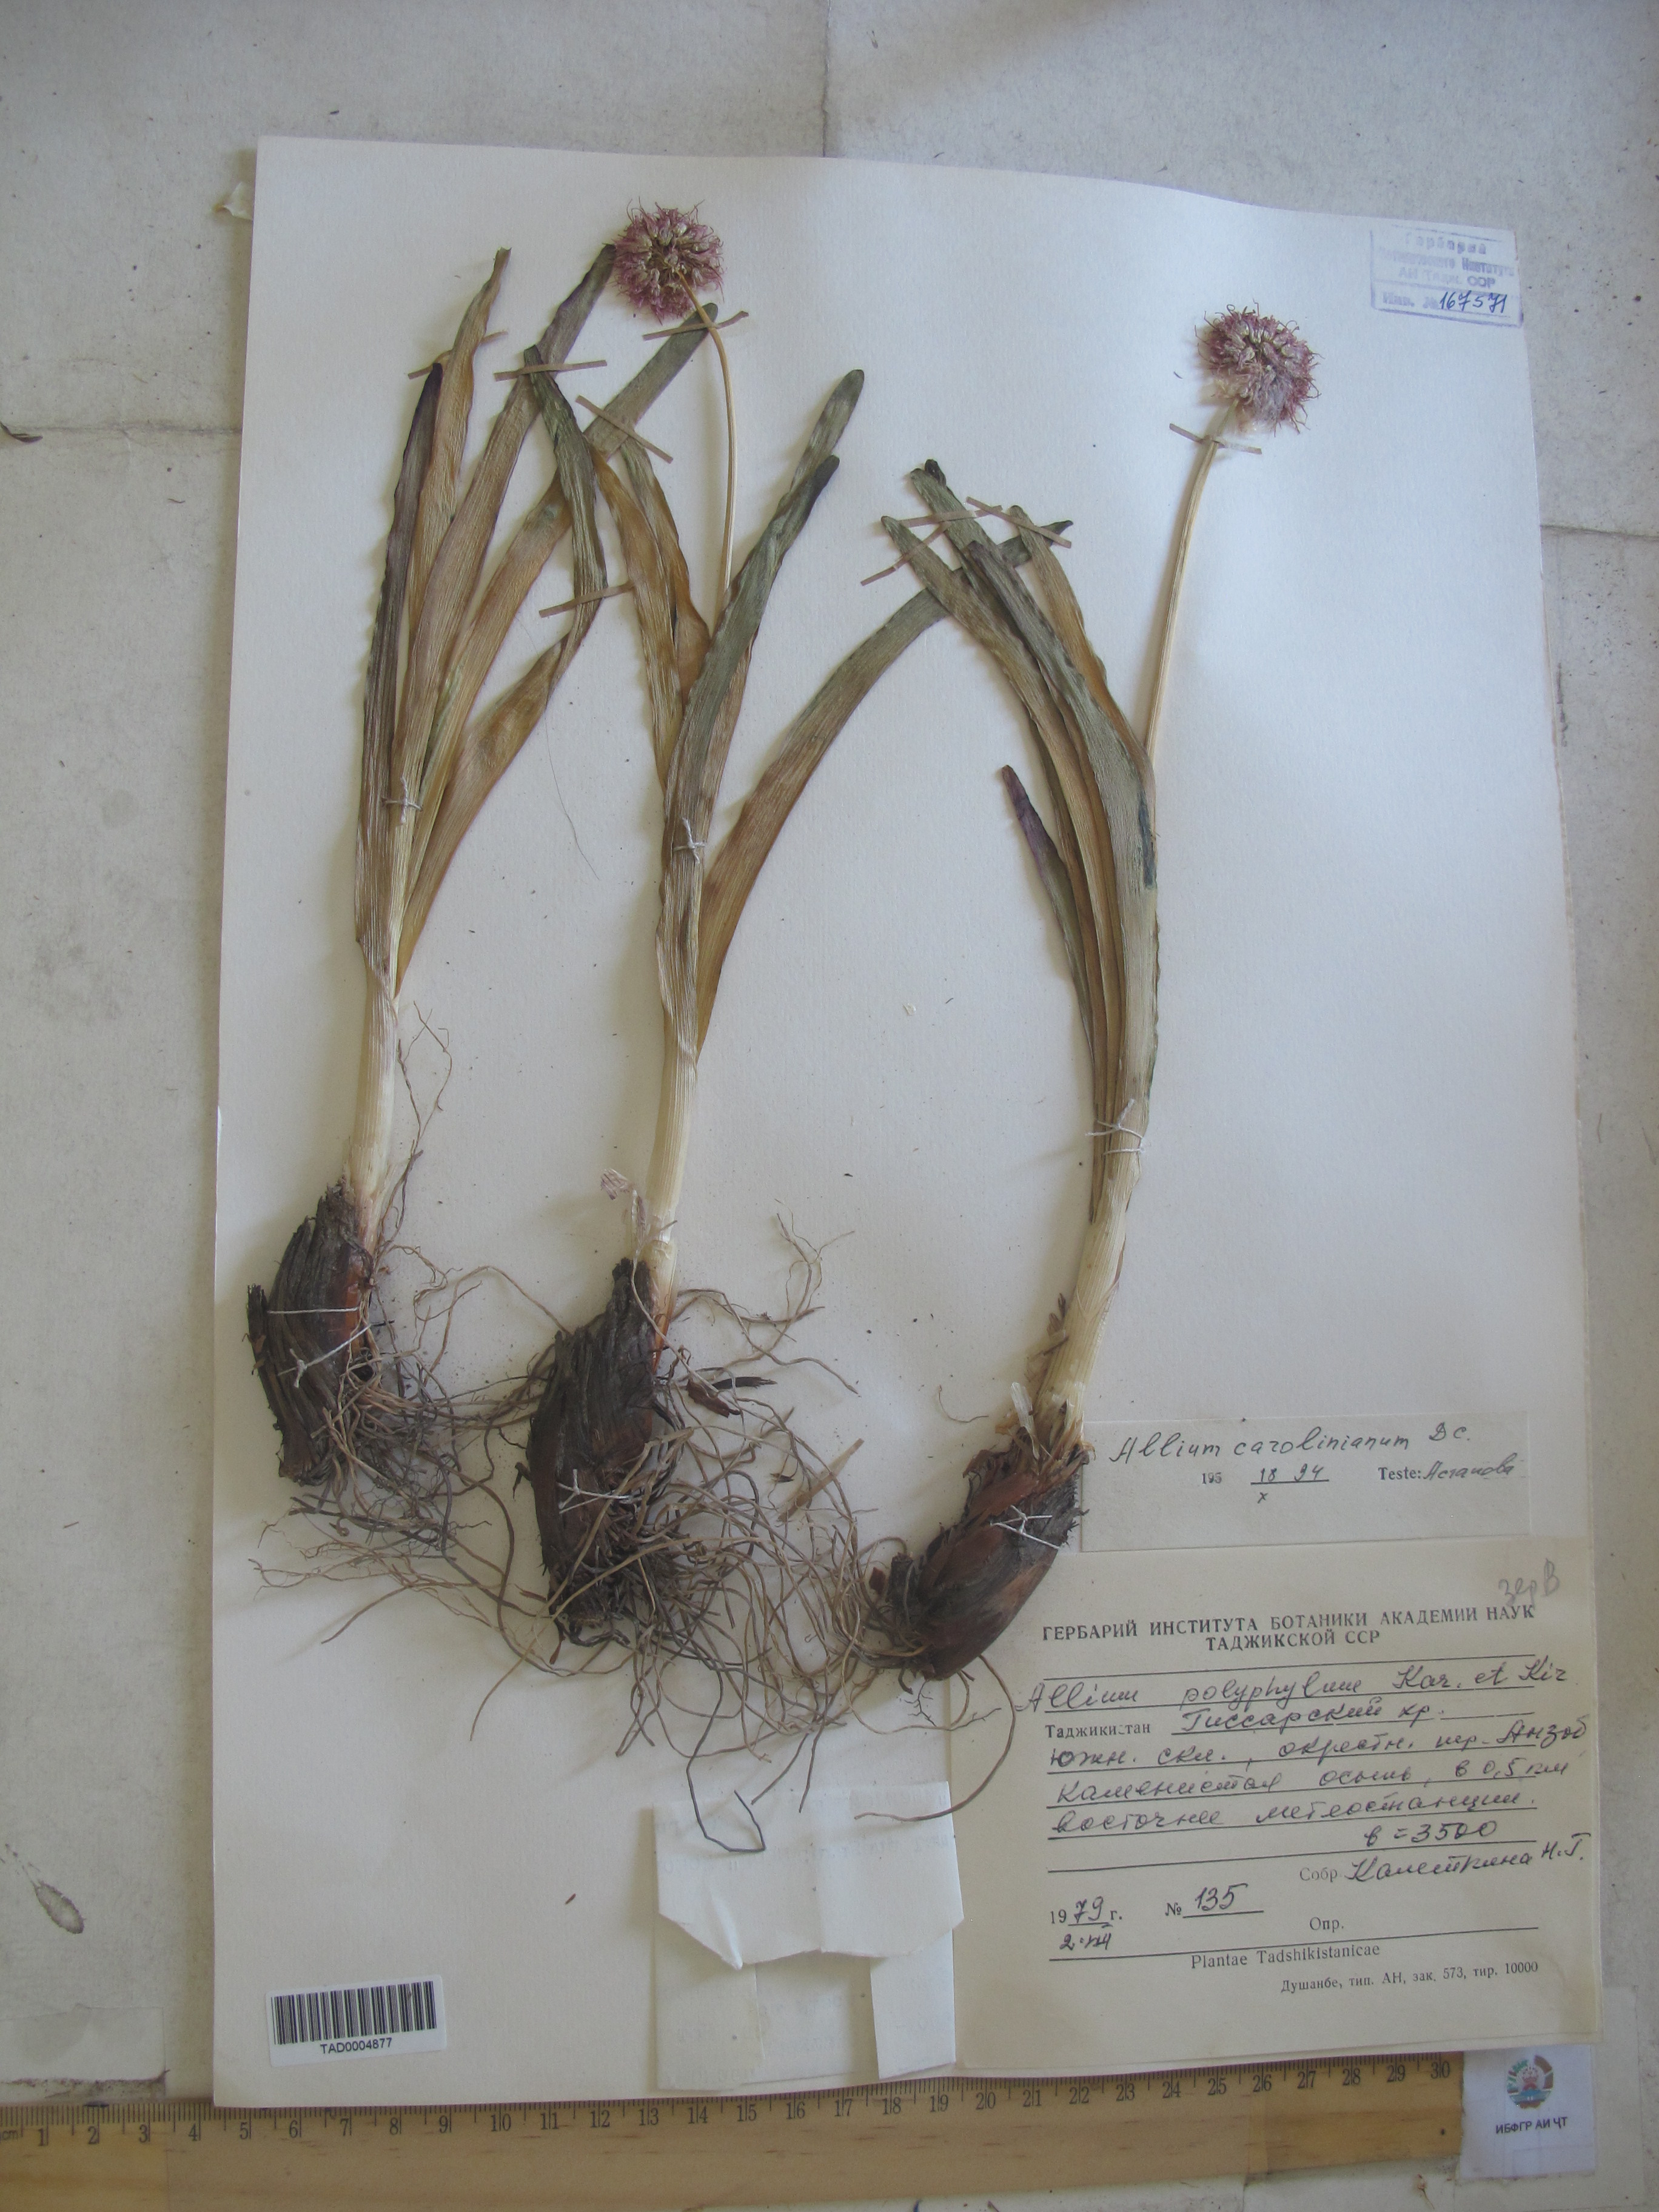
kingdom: Plantae
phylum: Tracheophyta
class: Liliopsida
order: Asparagales
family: Amaryllidaceae
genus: Allium
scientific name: Allium carolinianum
